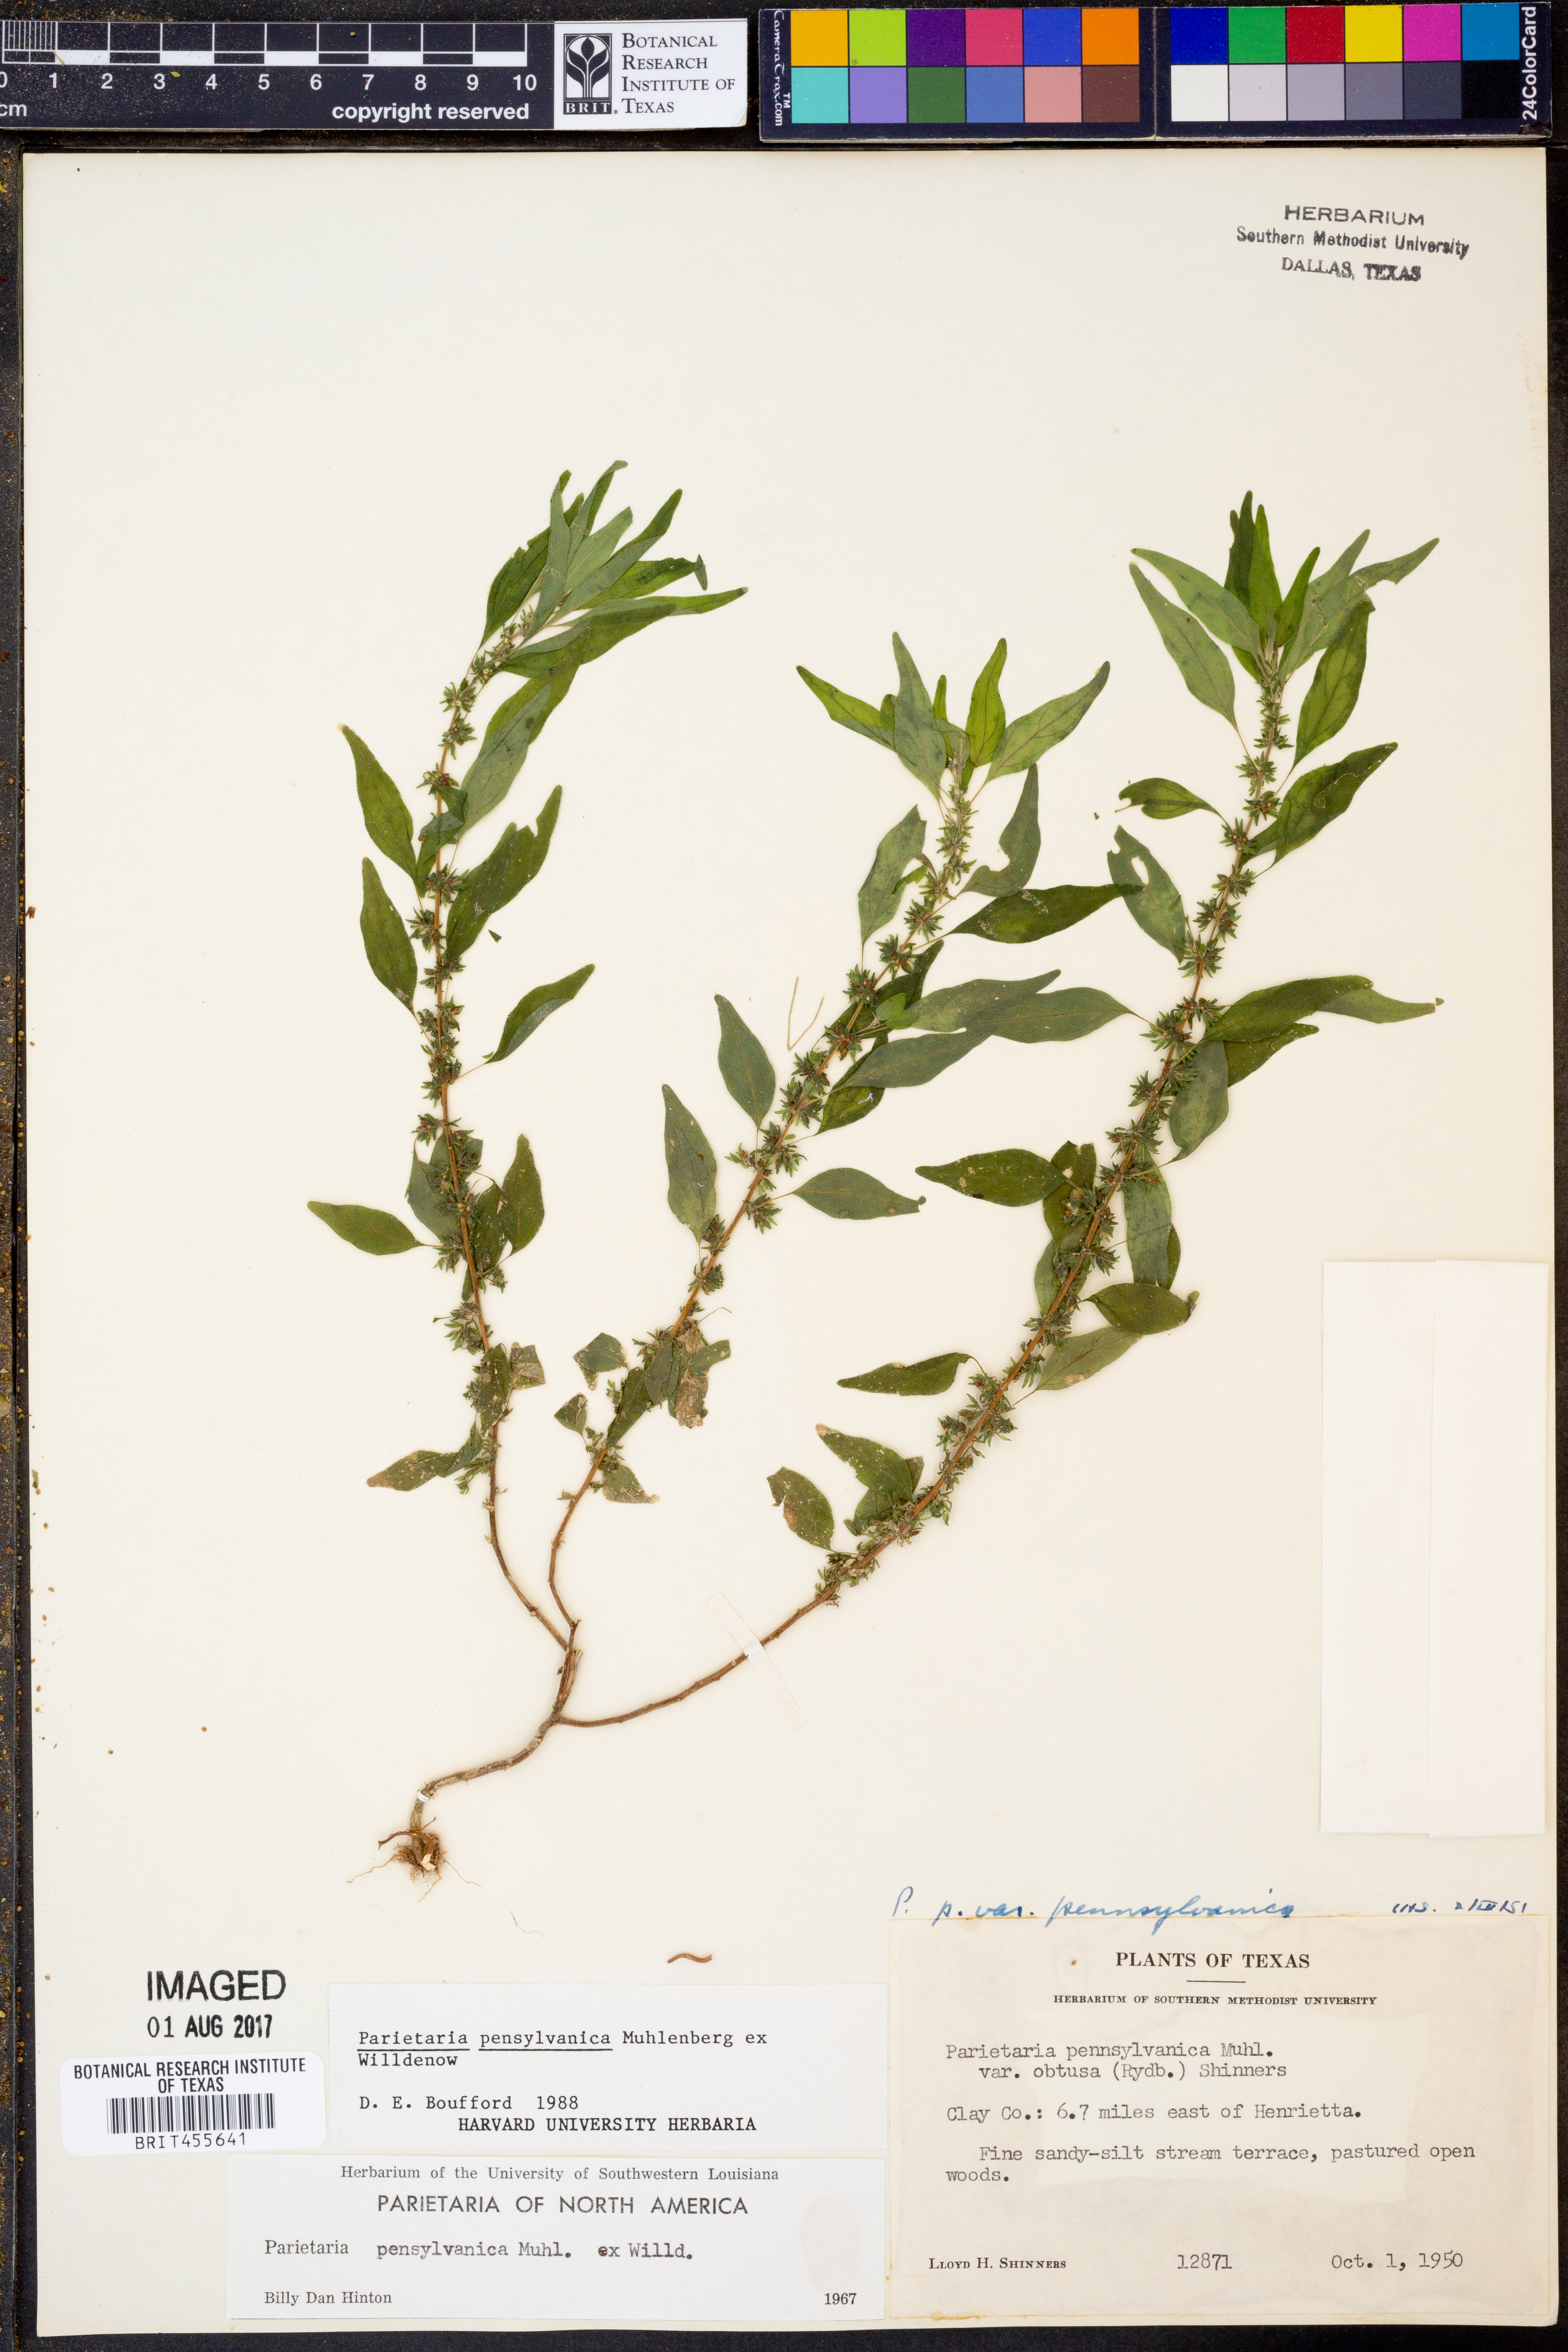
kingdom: Plantae
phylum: Tracheophyta
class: Magnoliopsida
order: Rosales
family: Urticaceae
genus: Parietaria
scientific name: Parietaria pensylvanica
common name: Pennsylvania pellitory
